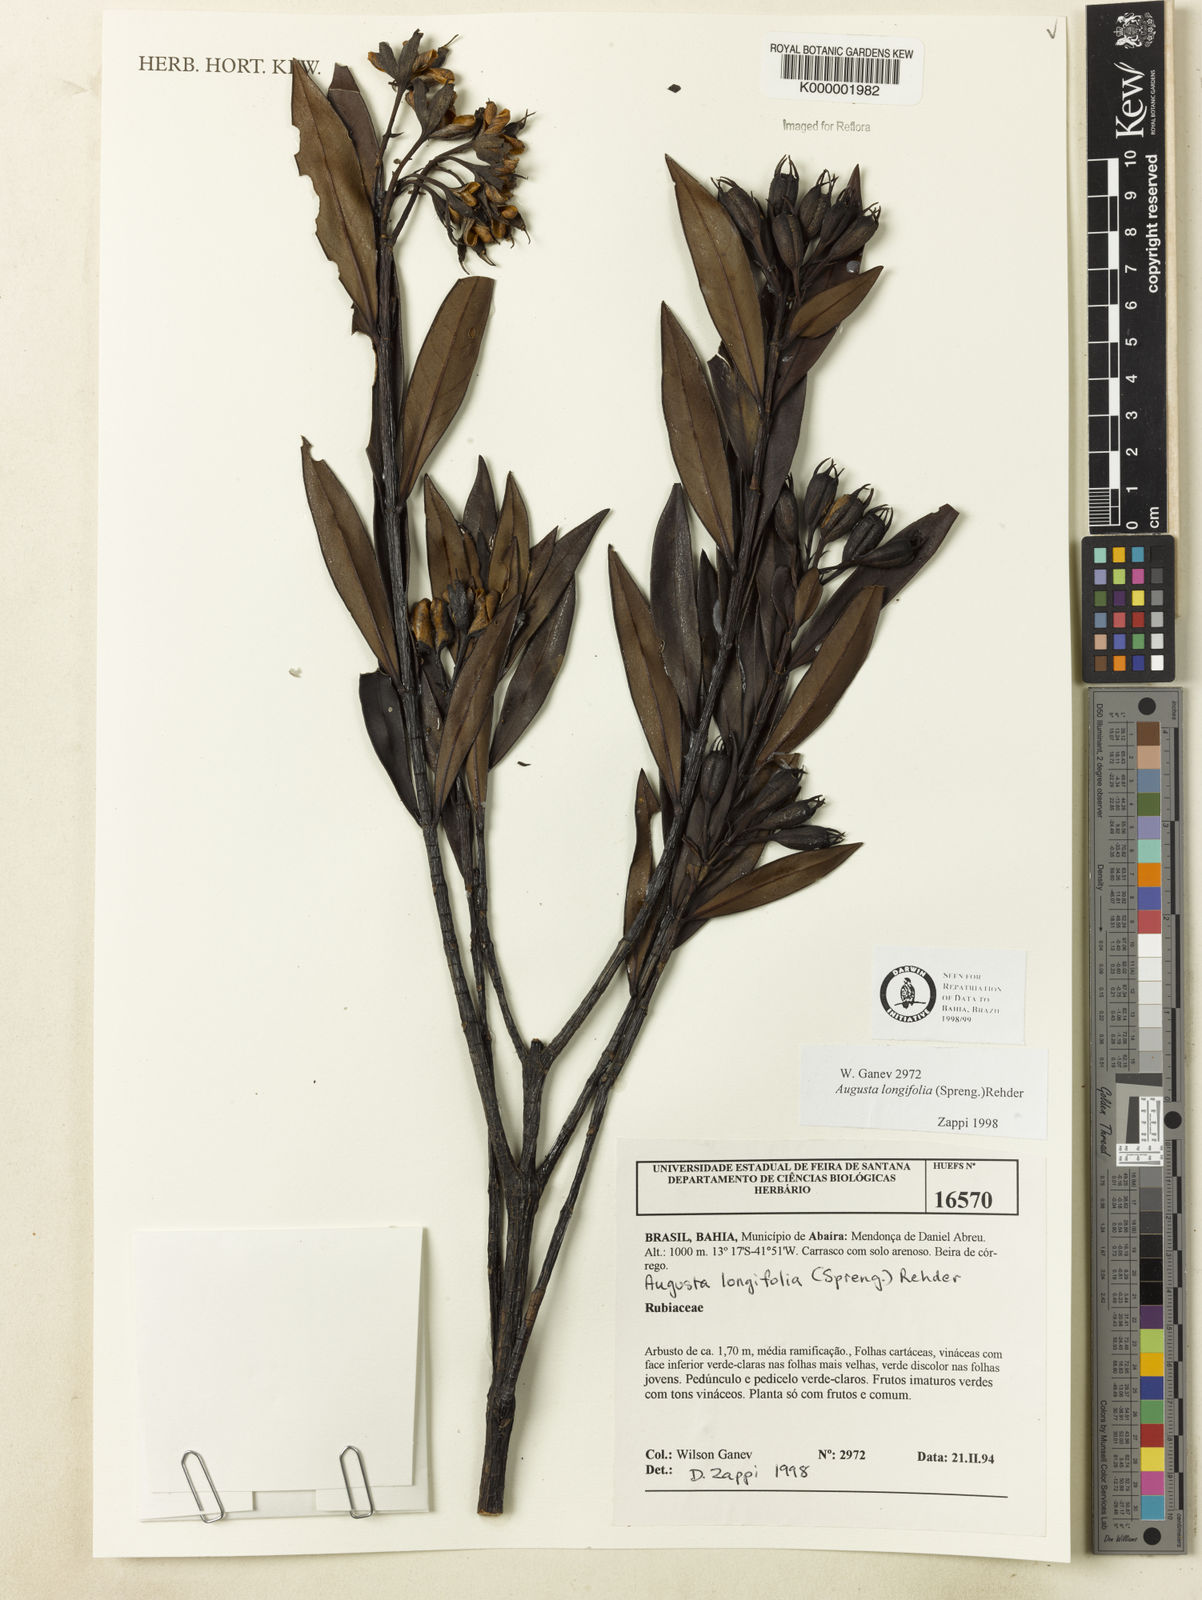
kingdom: Plantae
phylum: Tracheophyta
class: Magnoliopsida
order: Gentianales
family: Rubiaceae
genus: Augusta
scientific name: Augusta longifolia
